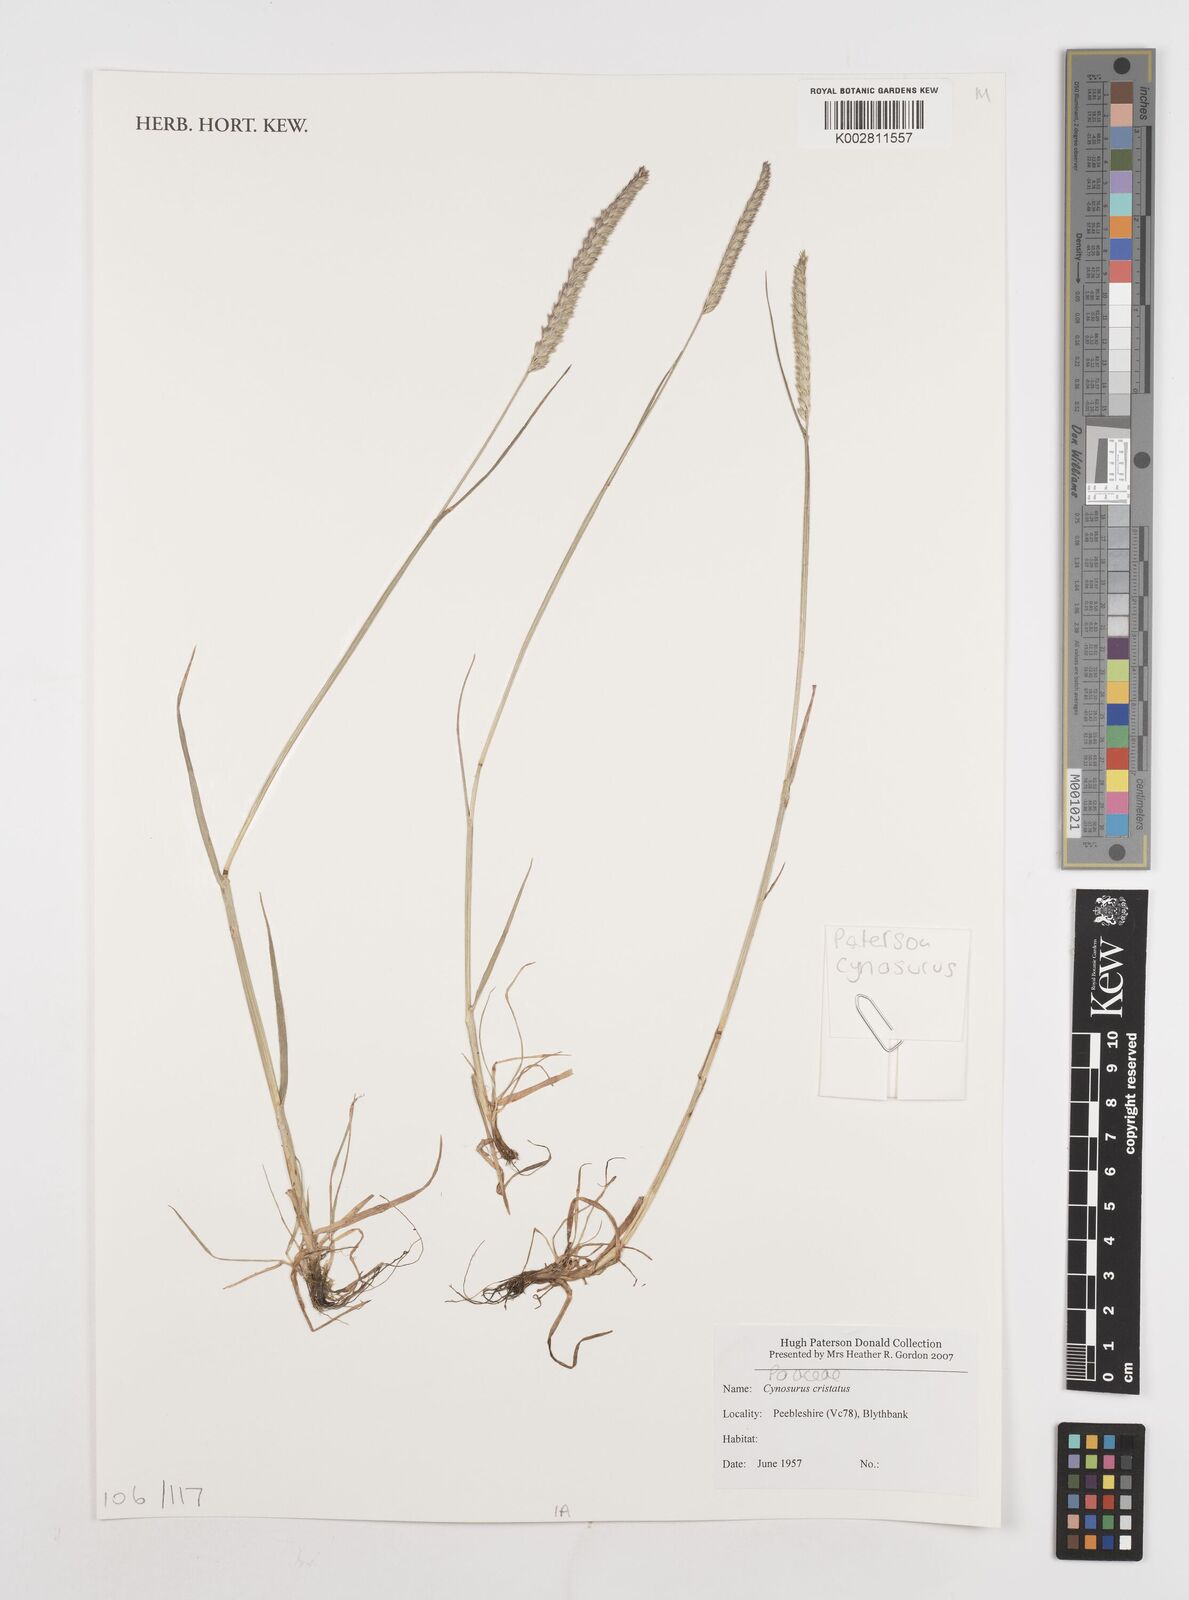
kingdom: Plantae
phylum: Tracheophyta
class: Liliopsida
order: Poales
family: Poaceae
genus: Cynosurus
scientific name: Cynosurus cristatus
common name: Crested dog's-tail
